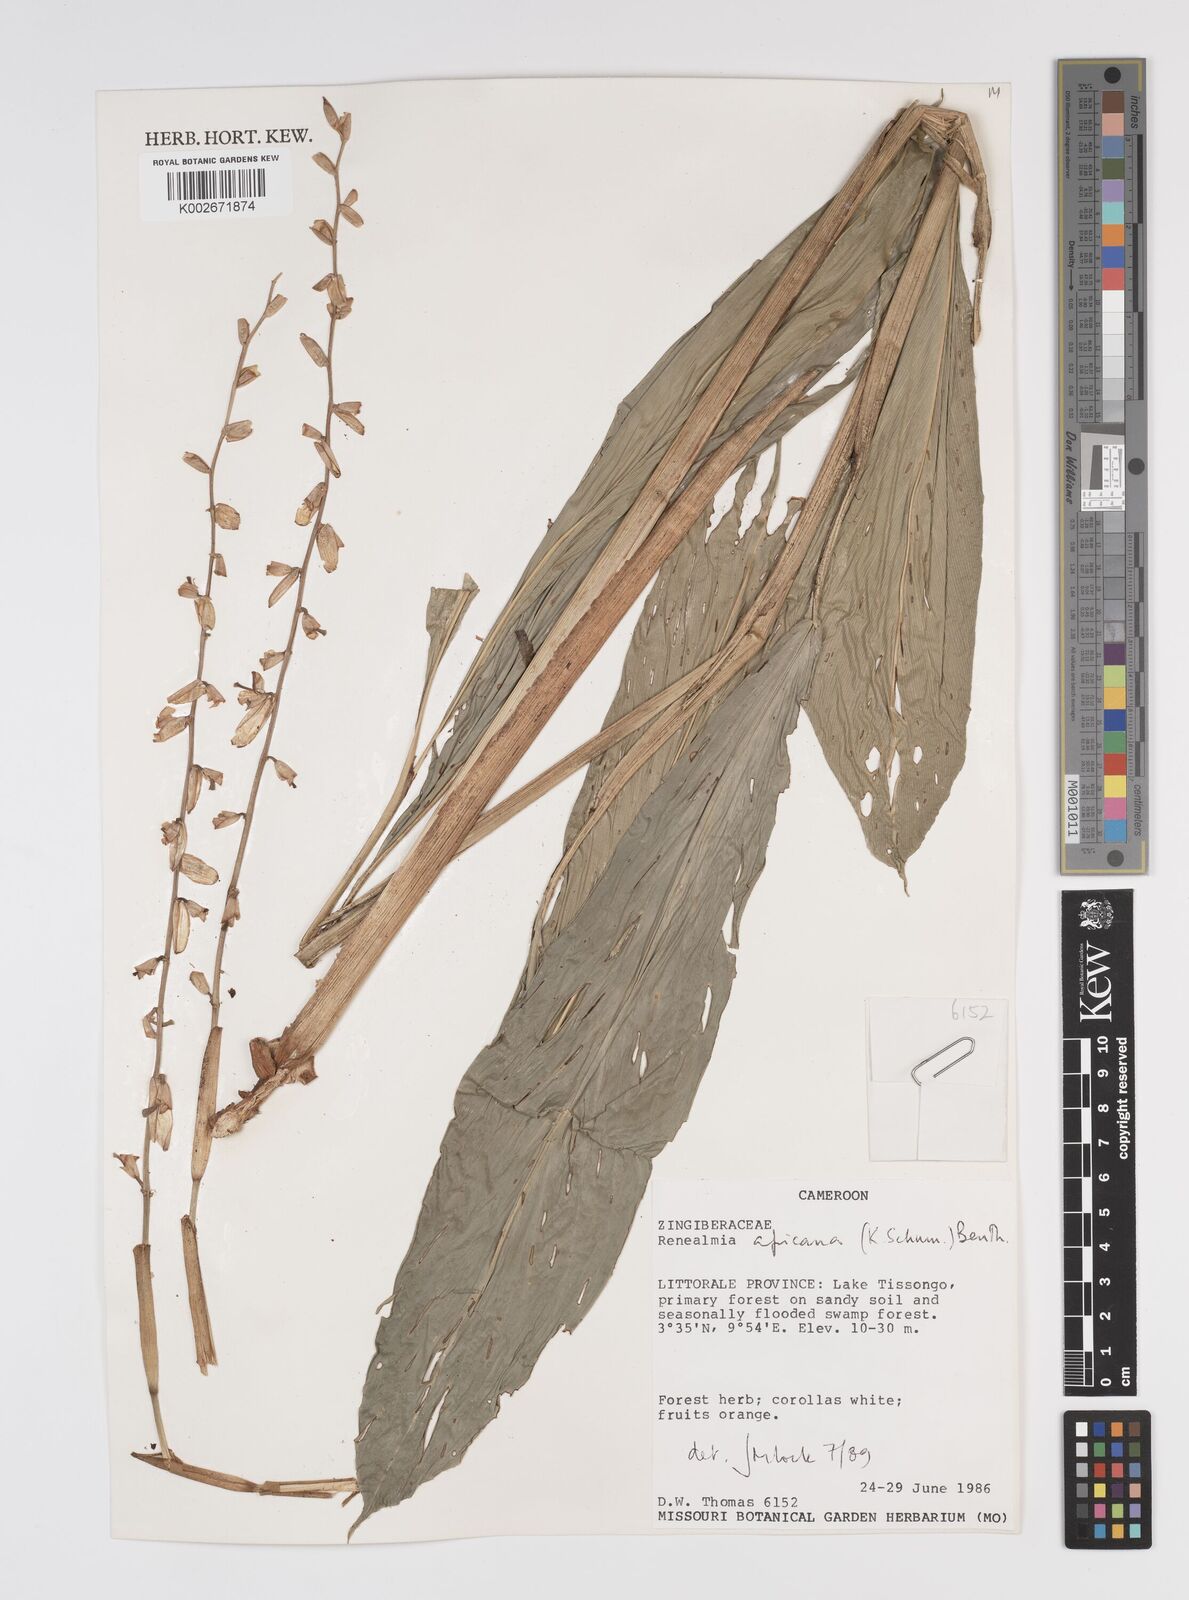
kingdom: Plantae
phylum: Tracheophyta
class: Liliopsida
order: Zingiberales
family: Zingiberaceae
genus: Renealmia
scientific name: Renealmia africana
